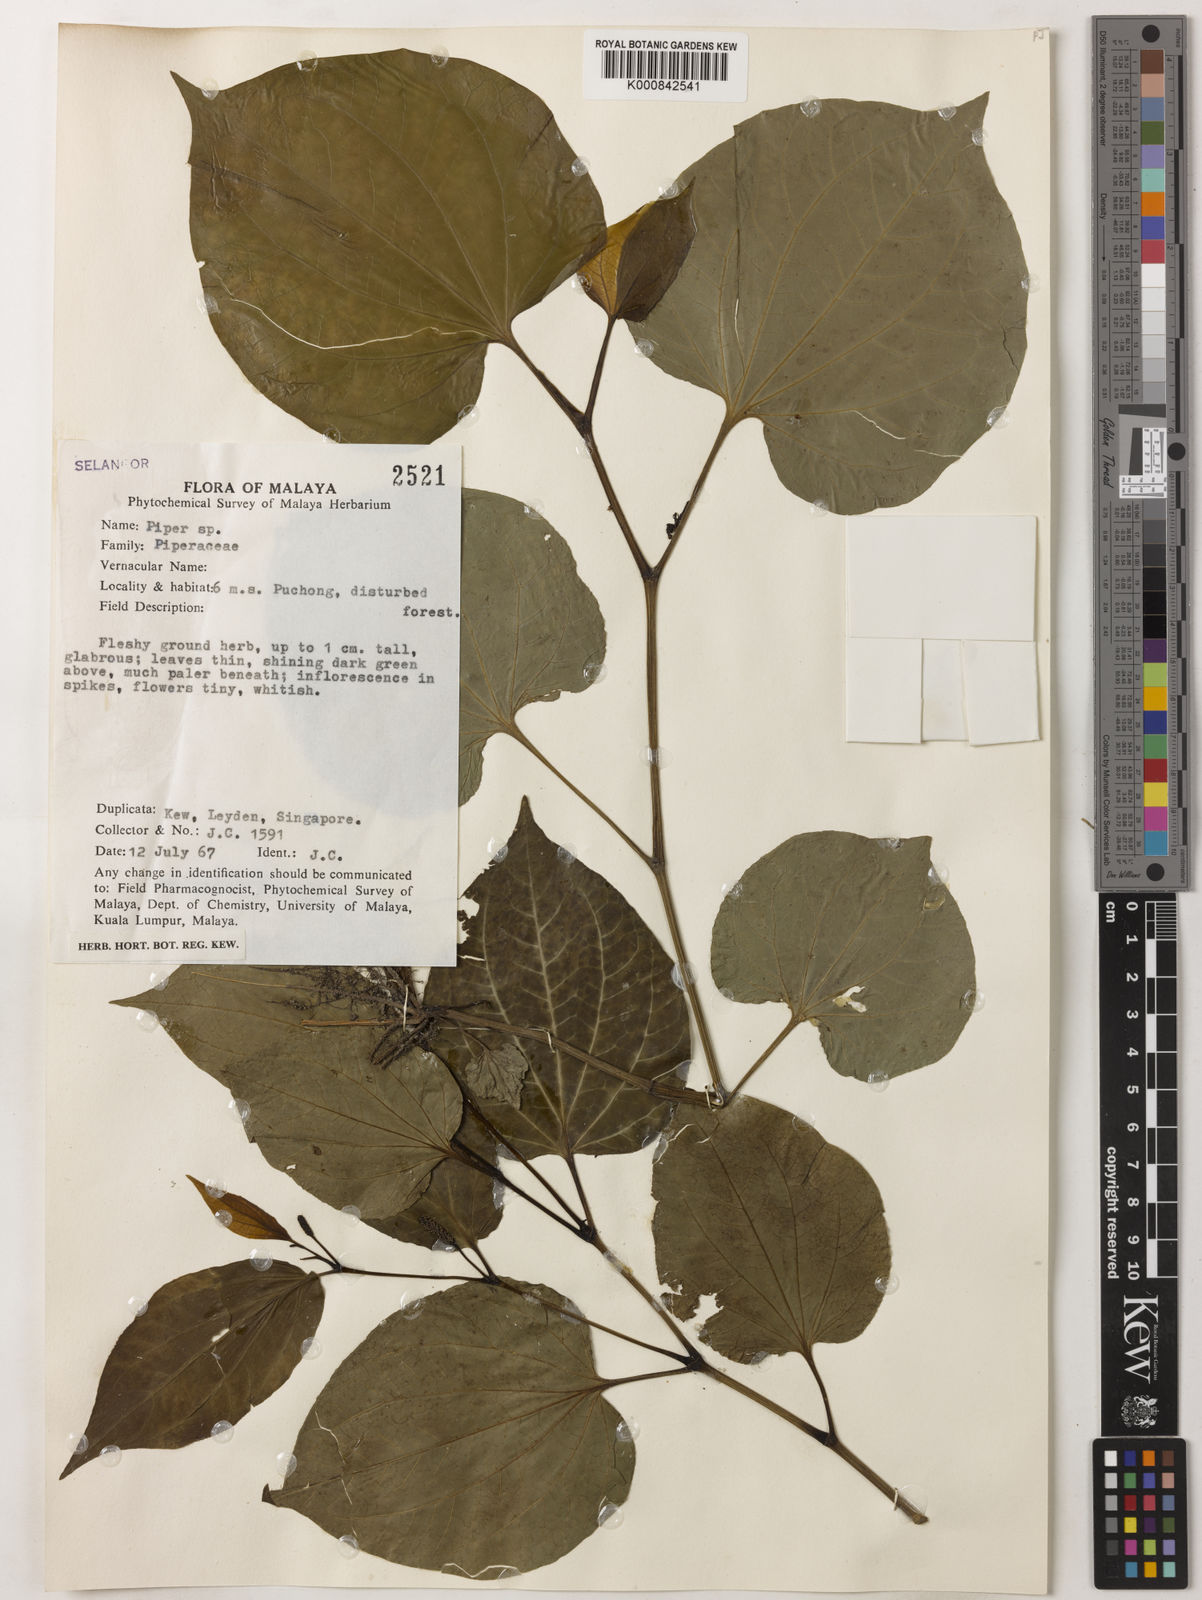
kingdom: Plantae
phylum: Tracheophyta
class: Magnoliopsida
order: Piperales
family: Piperaceae
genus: Piper
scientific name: Piper
